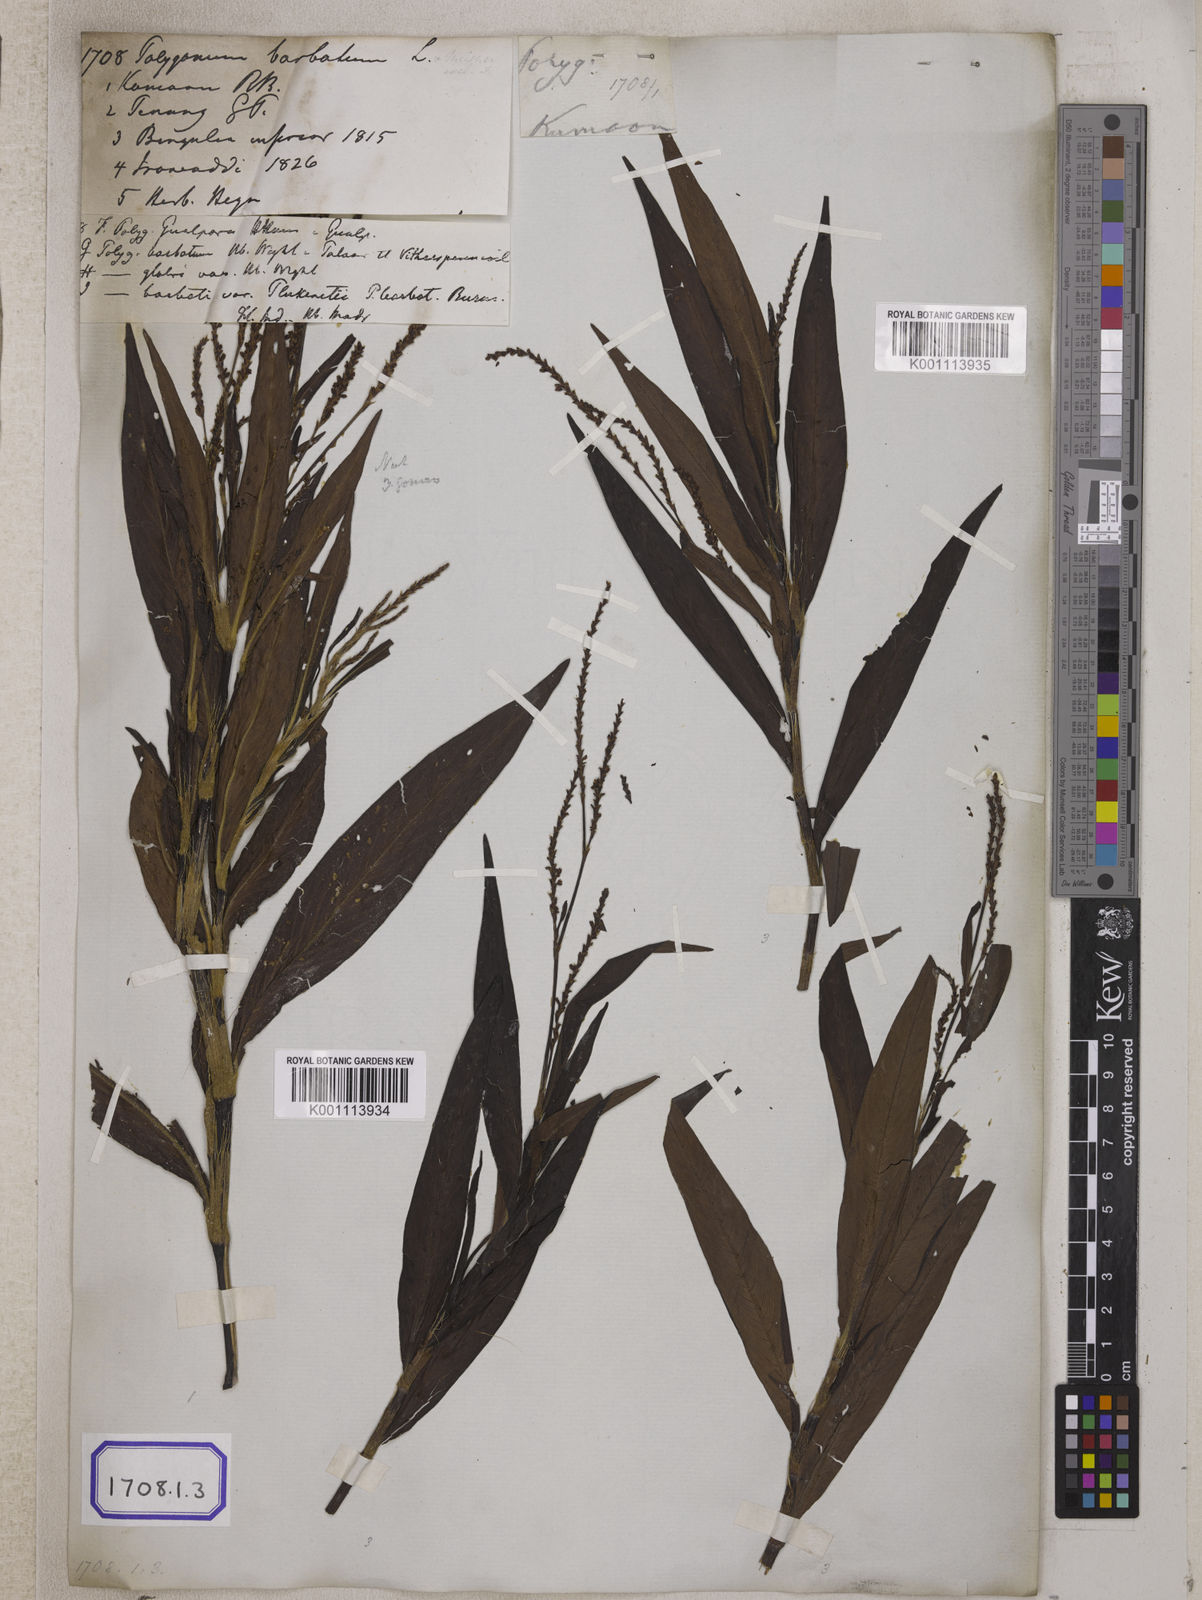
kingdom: Plantae
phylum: Tracheophyta
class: Magnoliopsida
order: Caryophyllales
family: Polygonaceae
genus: Persicaria
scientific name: Persicaria barbata
